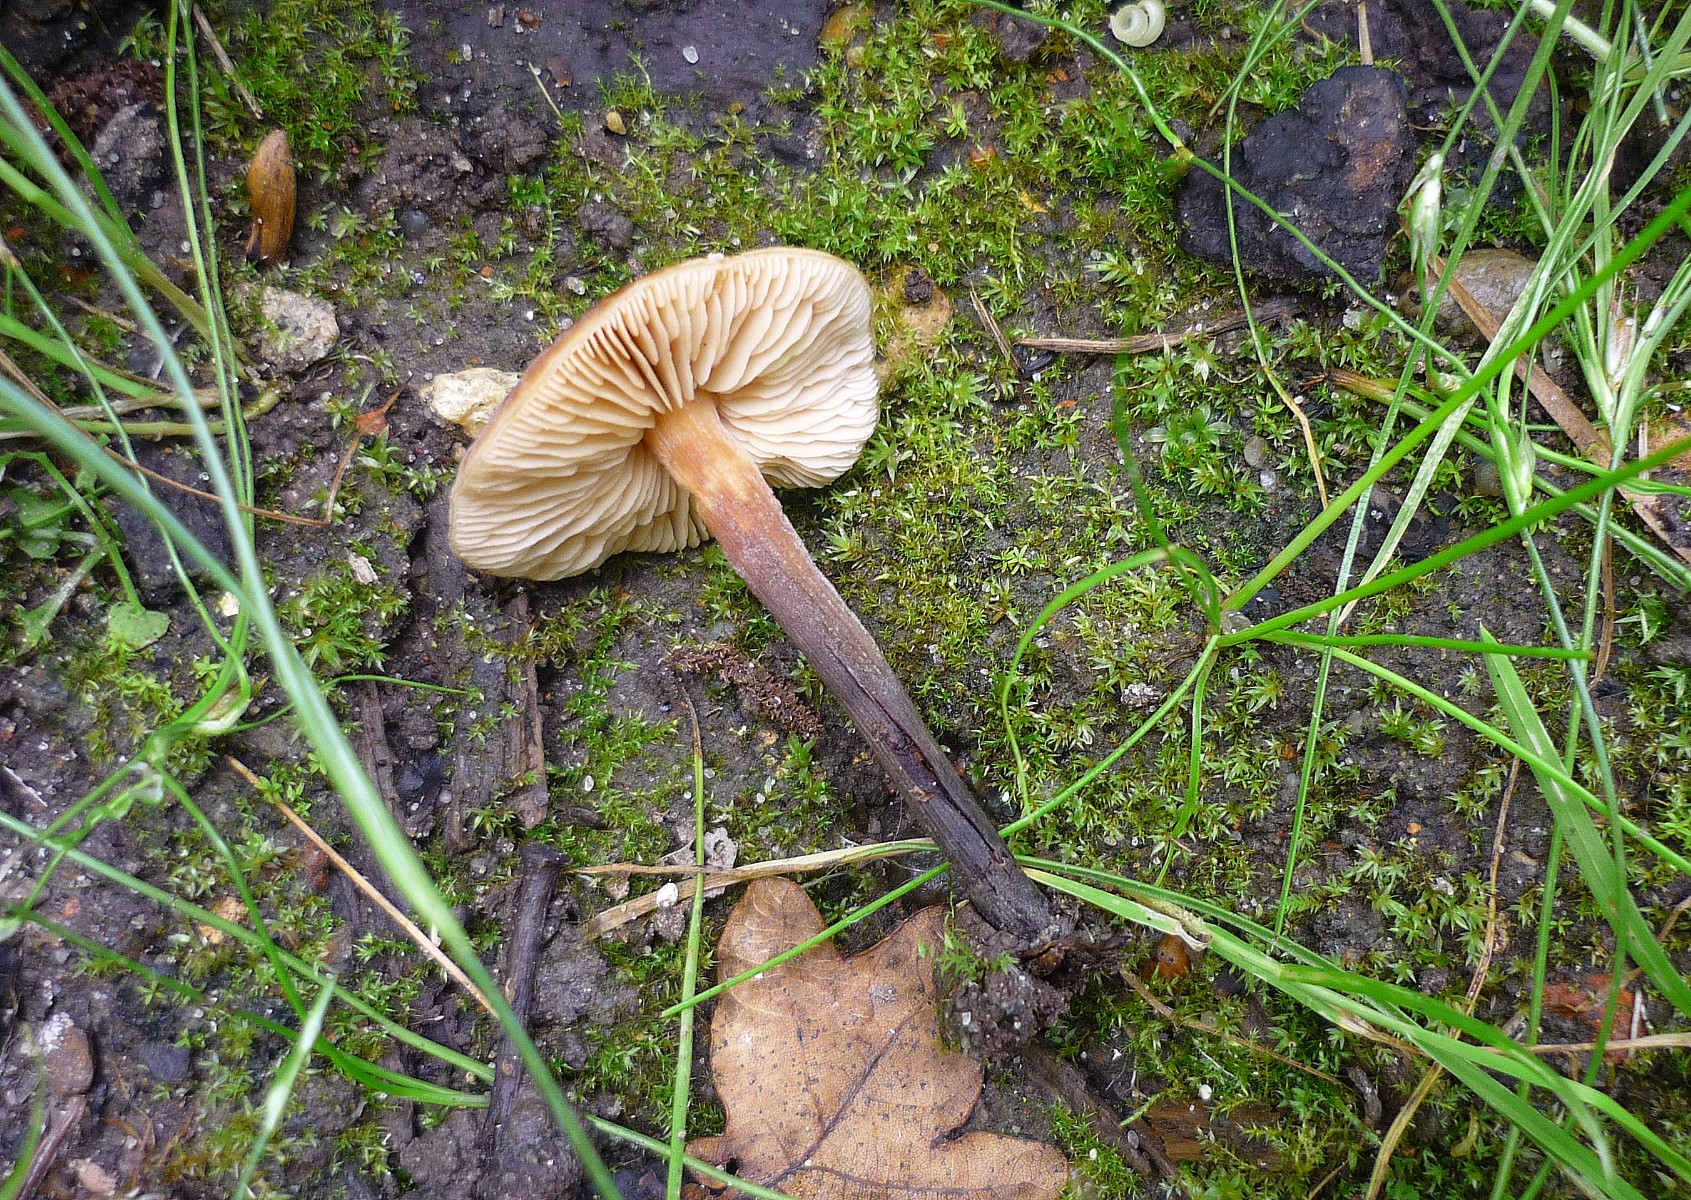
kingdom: Fungi
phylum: Basidiomycota
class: Agaricomycetes
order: Agaricales
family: Macrocystidiaceae
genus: Macrocystidia
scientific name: Macrocystidia cucumis
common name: agurkehat
